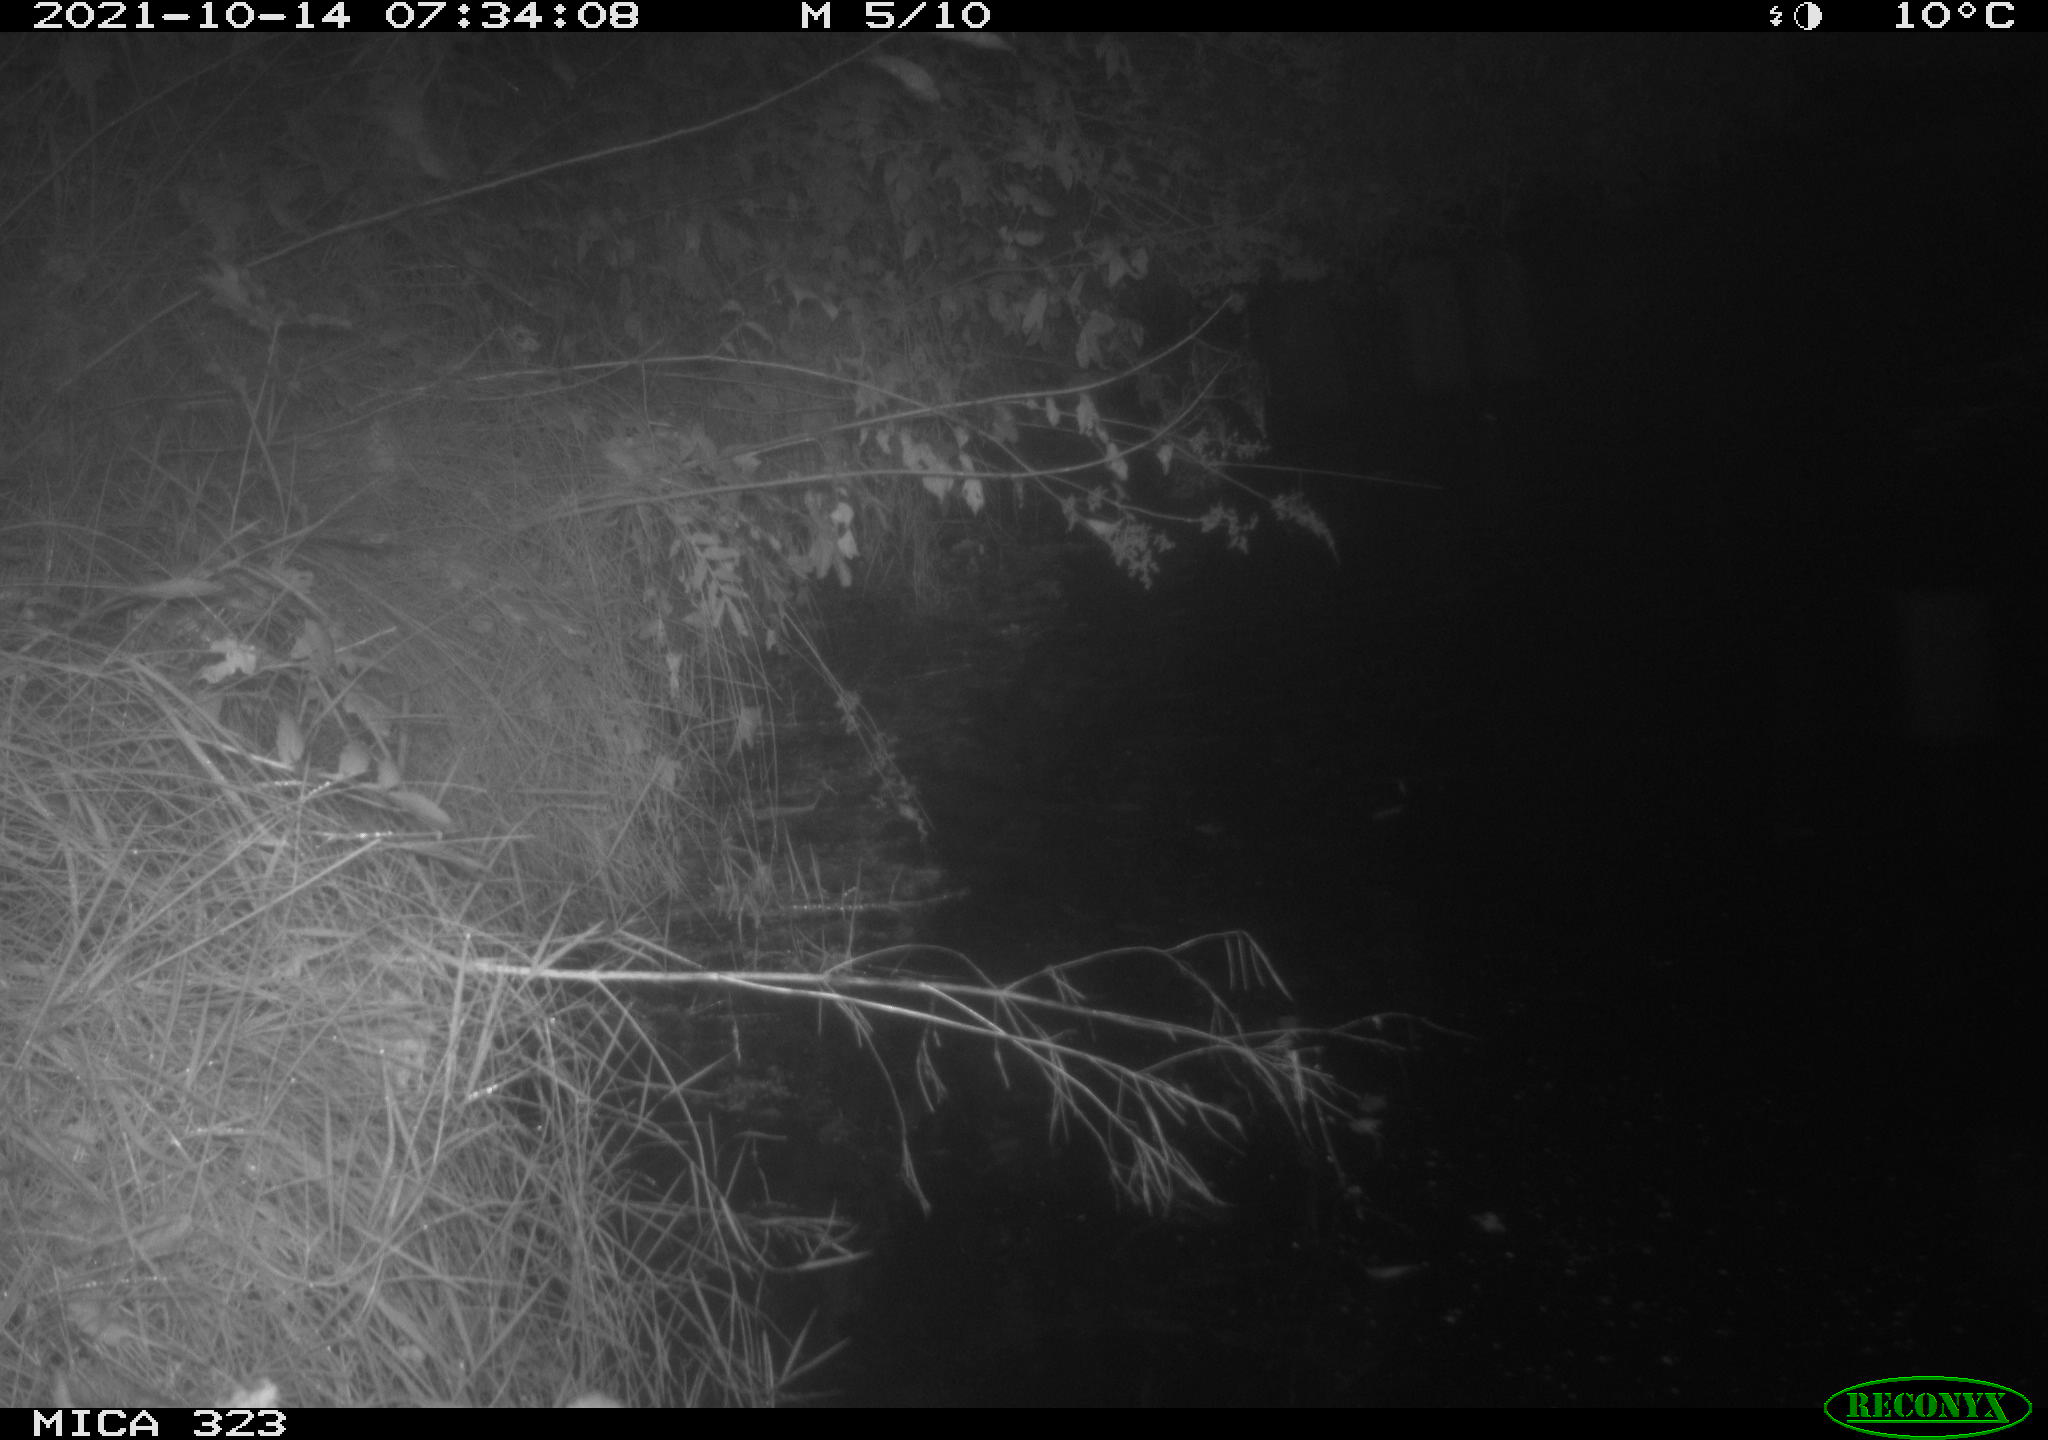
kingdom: Animalia
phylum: Chordata
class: Aves
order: Anseriformes
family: Anatidae
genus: Anas
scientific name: Anas
